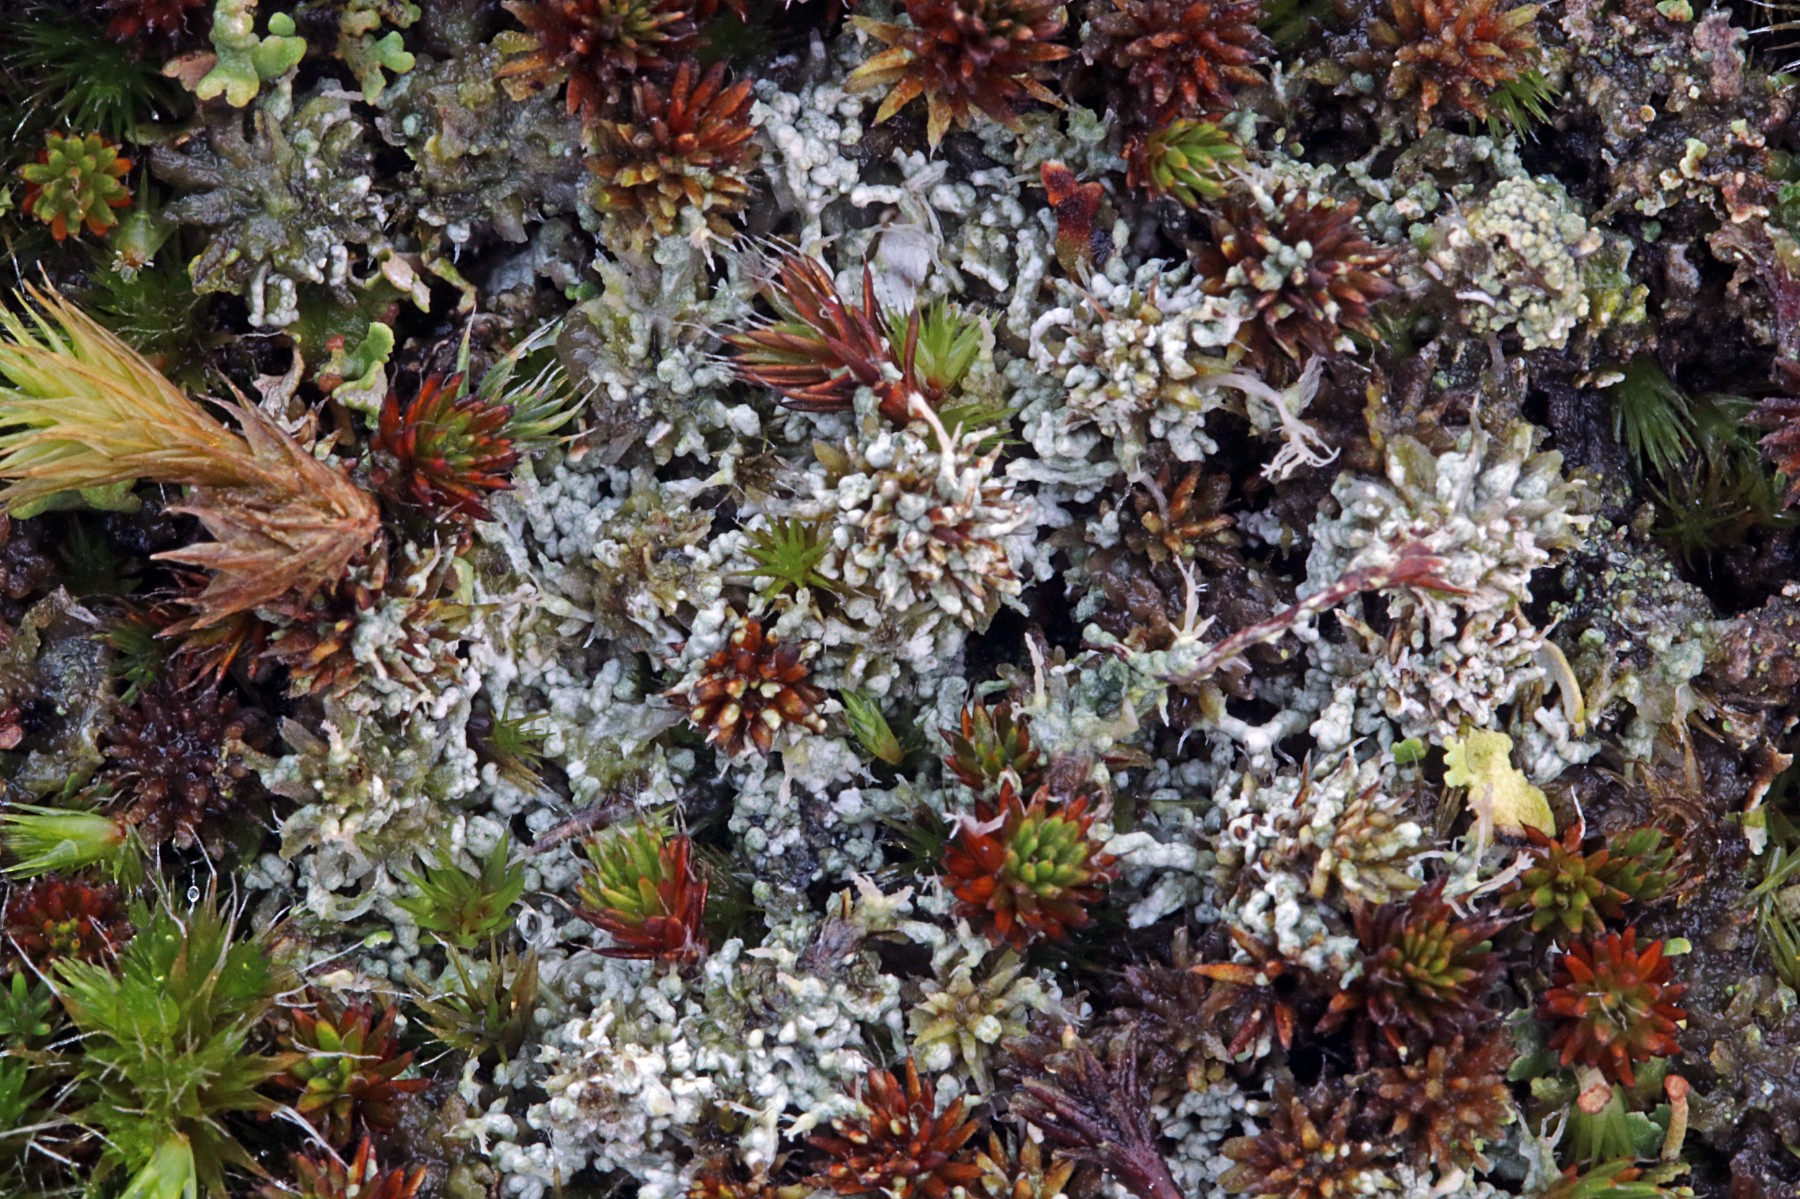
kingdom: Fungi
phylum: Ascomycota
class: Lecanoromycetes
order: Pertusariales
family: Ochrolechiaceae
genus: Ochrolechia
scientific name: Ochrolechia frigida
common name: fjeld-blegskivelav
